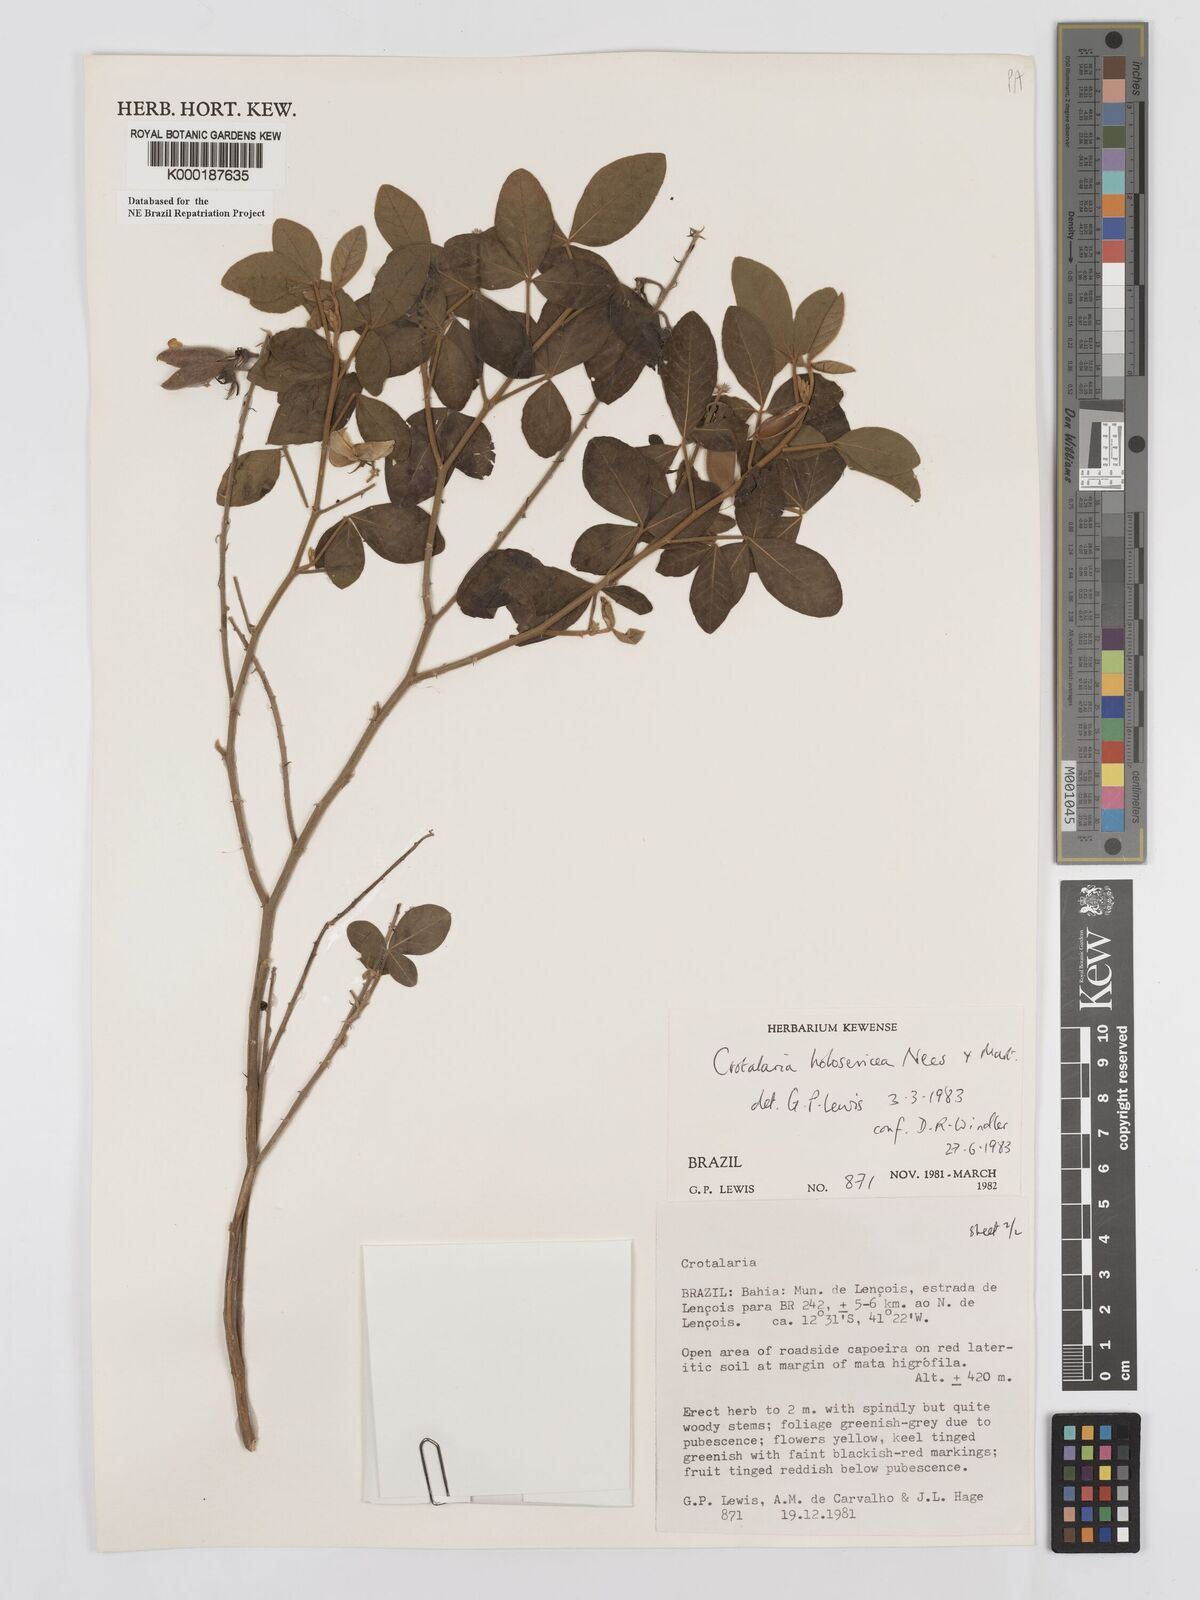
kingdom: Plantae
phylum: Tracheophyta
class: Magnoliopsida
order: Fabales
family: Fabaceae
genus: Crotalaria
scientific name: Crotalaria holosericea
